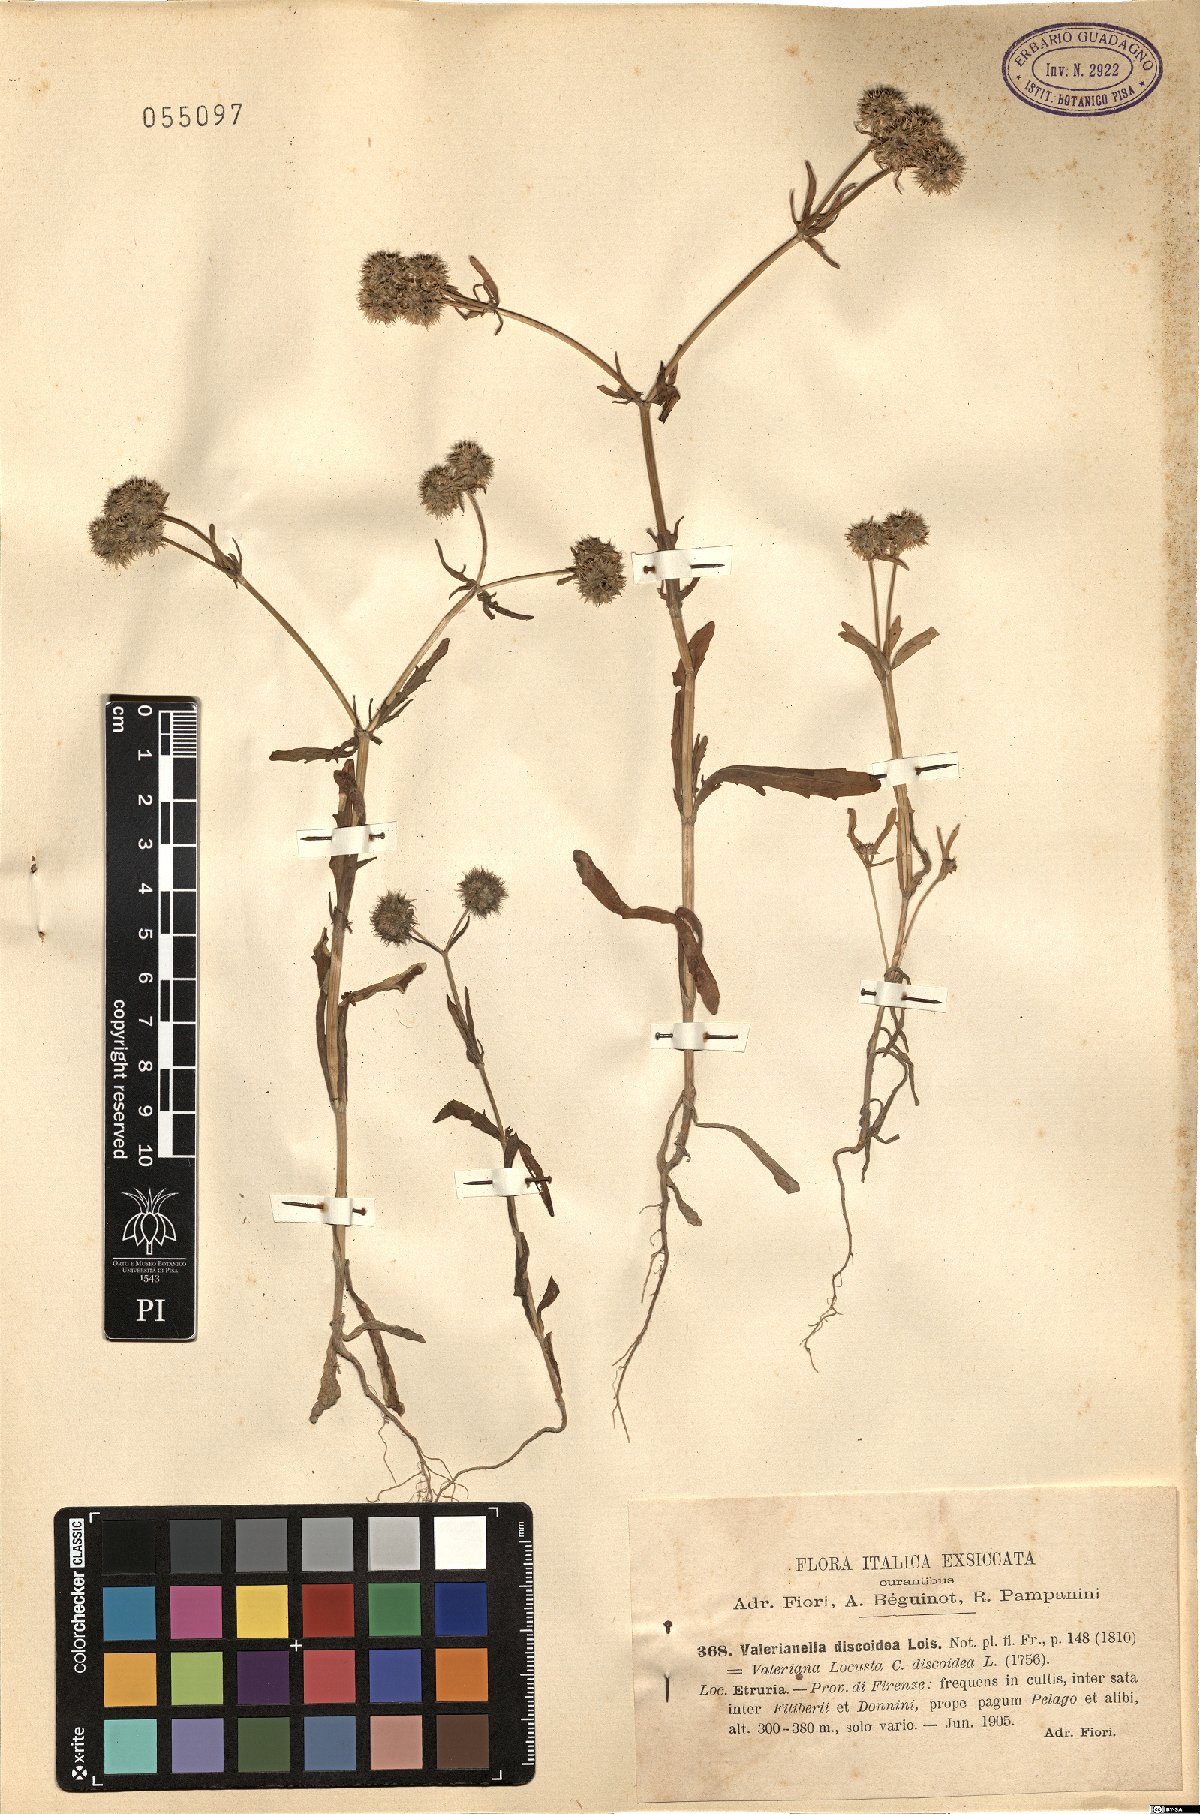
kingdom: Plantae
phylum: Tracheophyta
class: Magnoliopsida
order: Dipsacales
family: Caprifoliaceae
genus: Valerianella
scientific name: Valerianella discoidea
